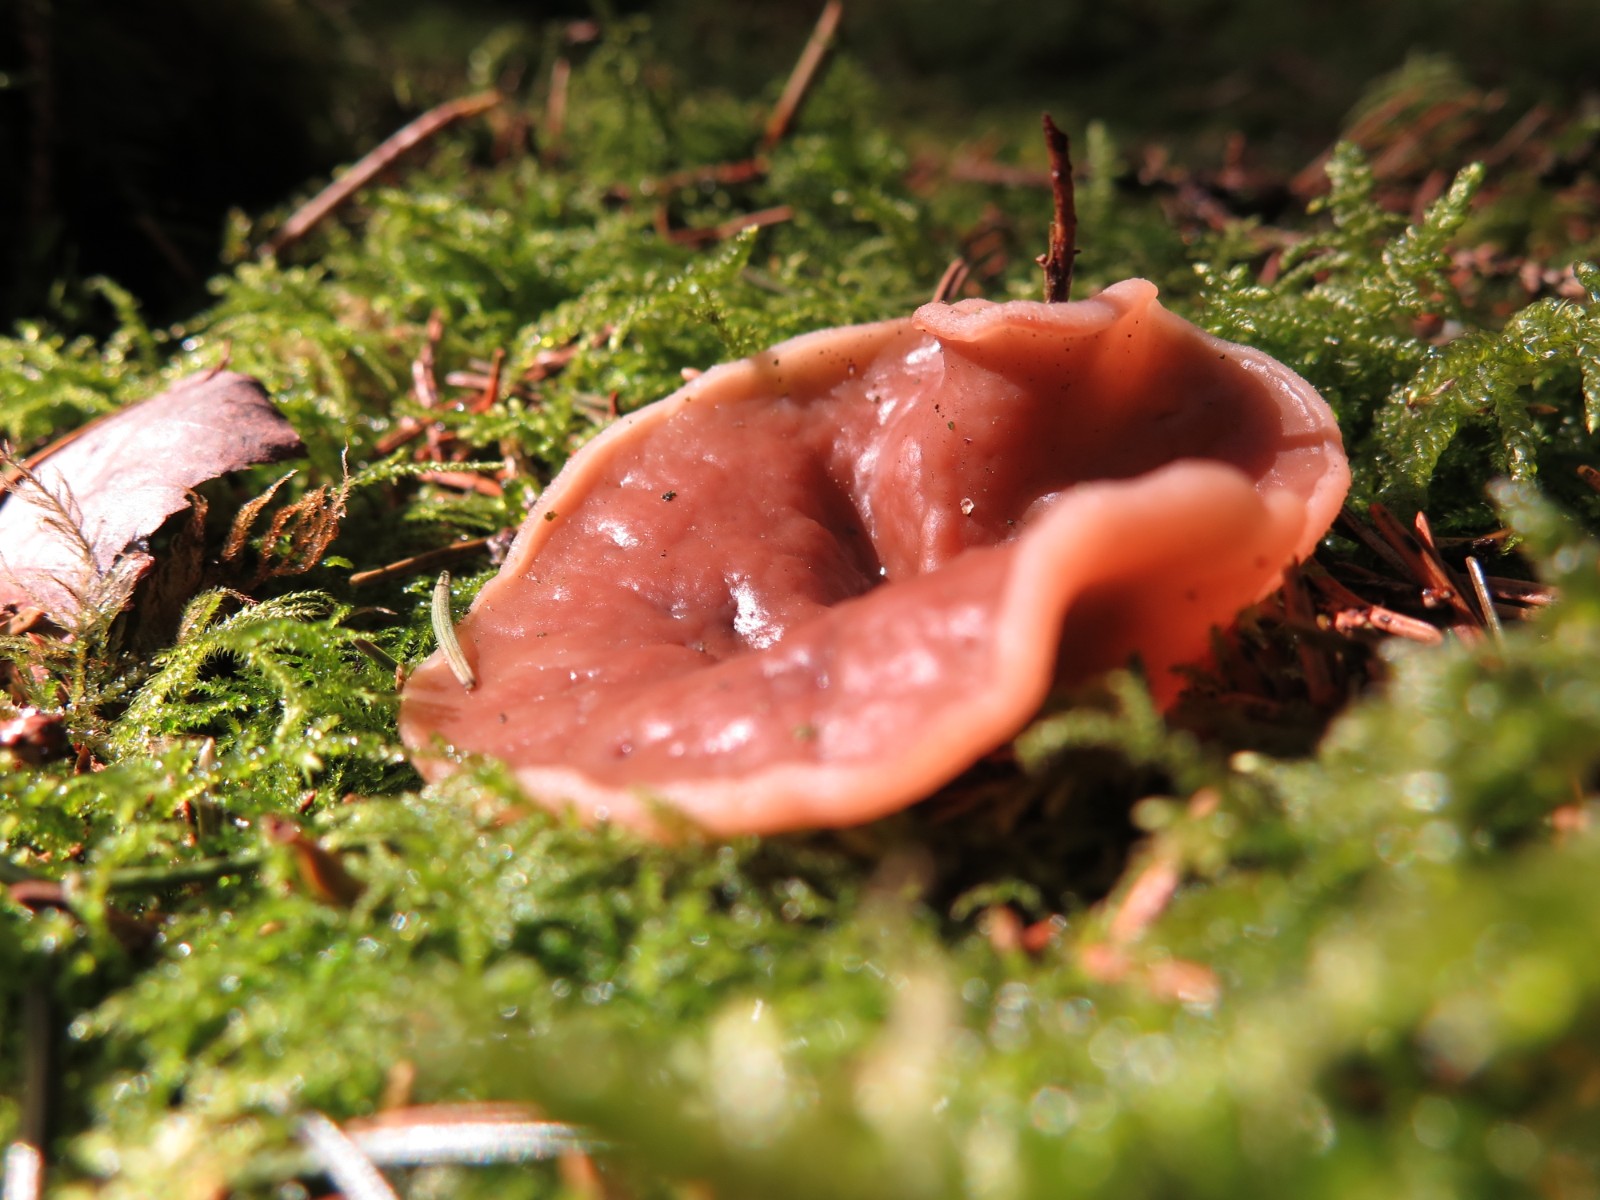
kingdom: Fungi
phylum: Ascomycota
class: Pezizomycetes
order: Pezizales
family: Discinaceae
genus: Discina
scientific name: Discina ancilis
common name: udbredt stenmorkel
